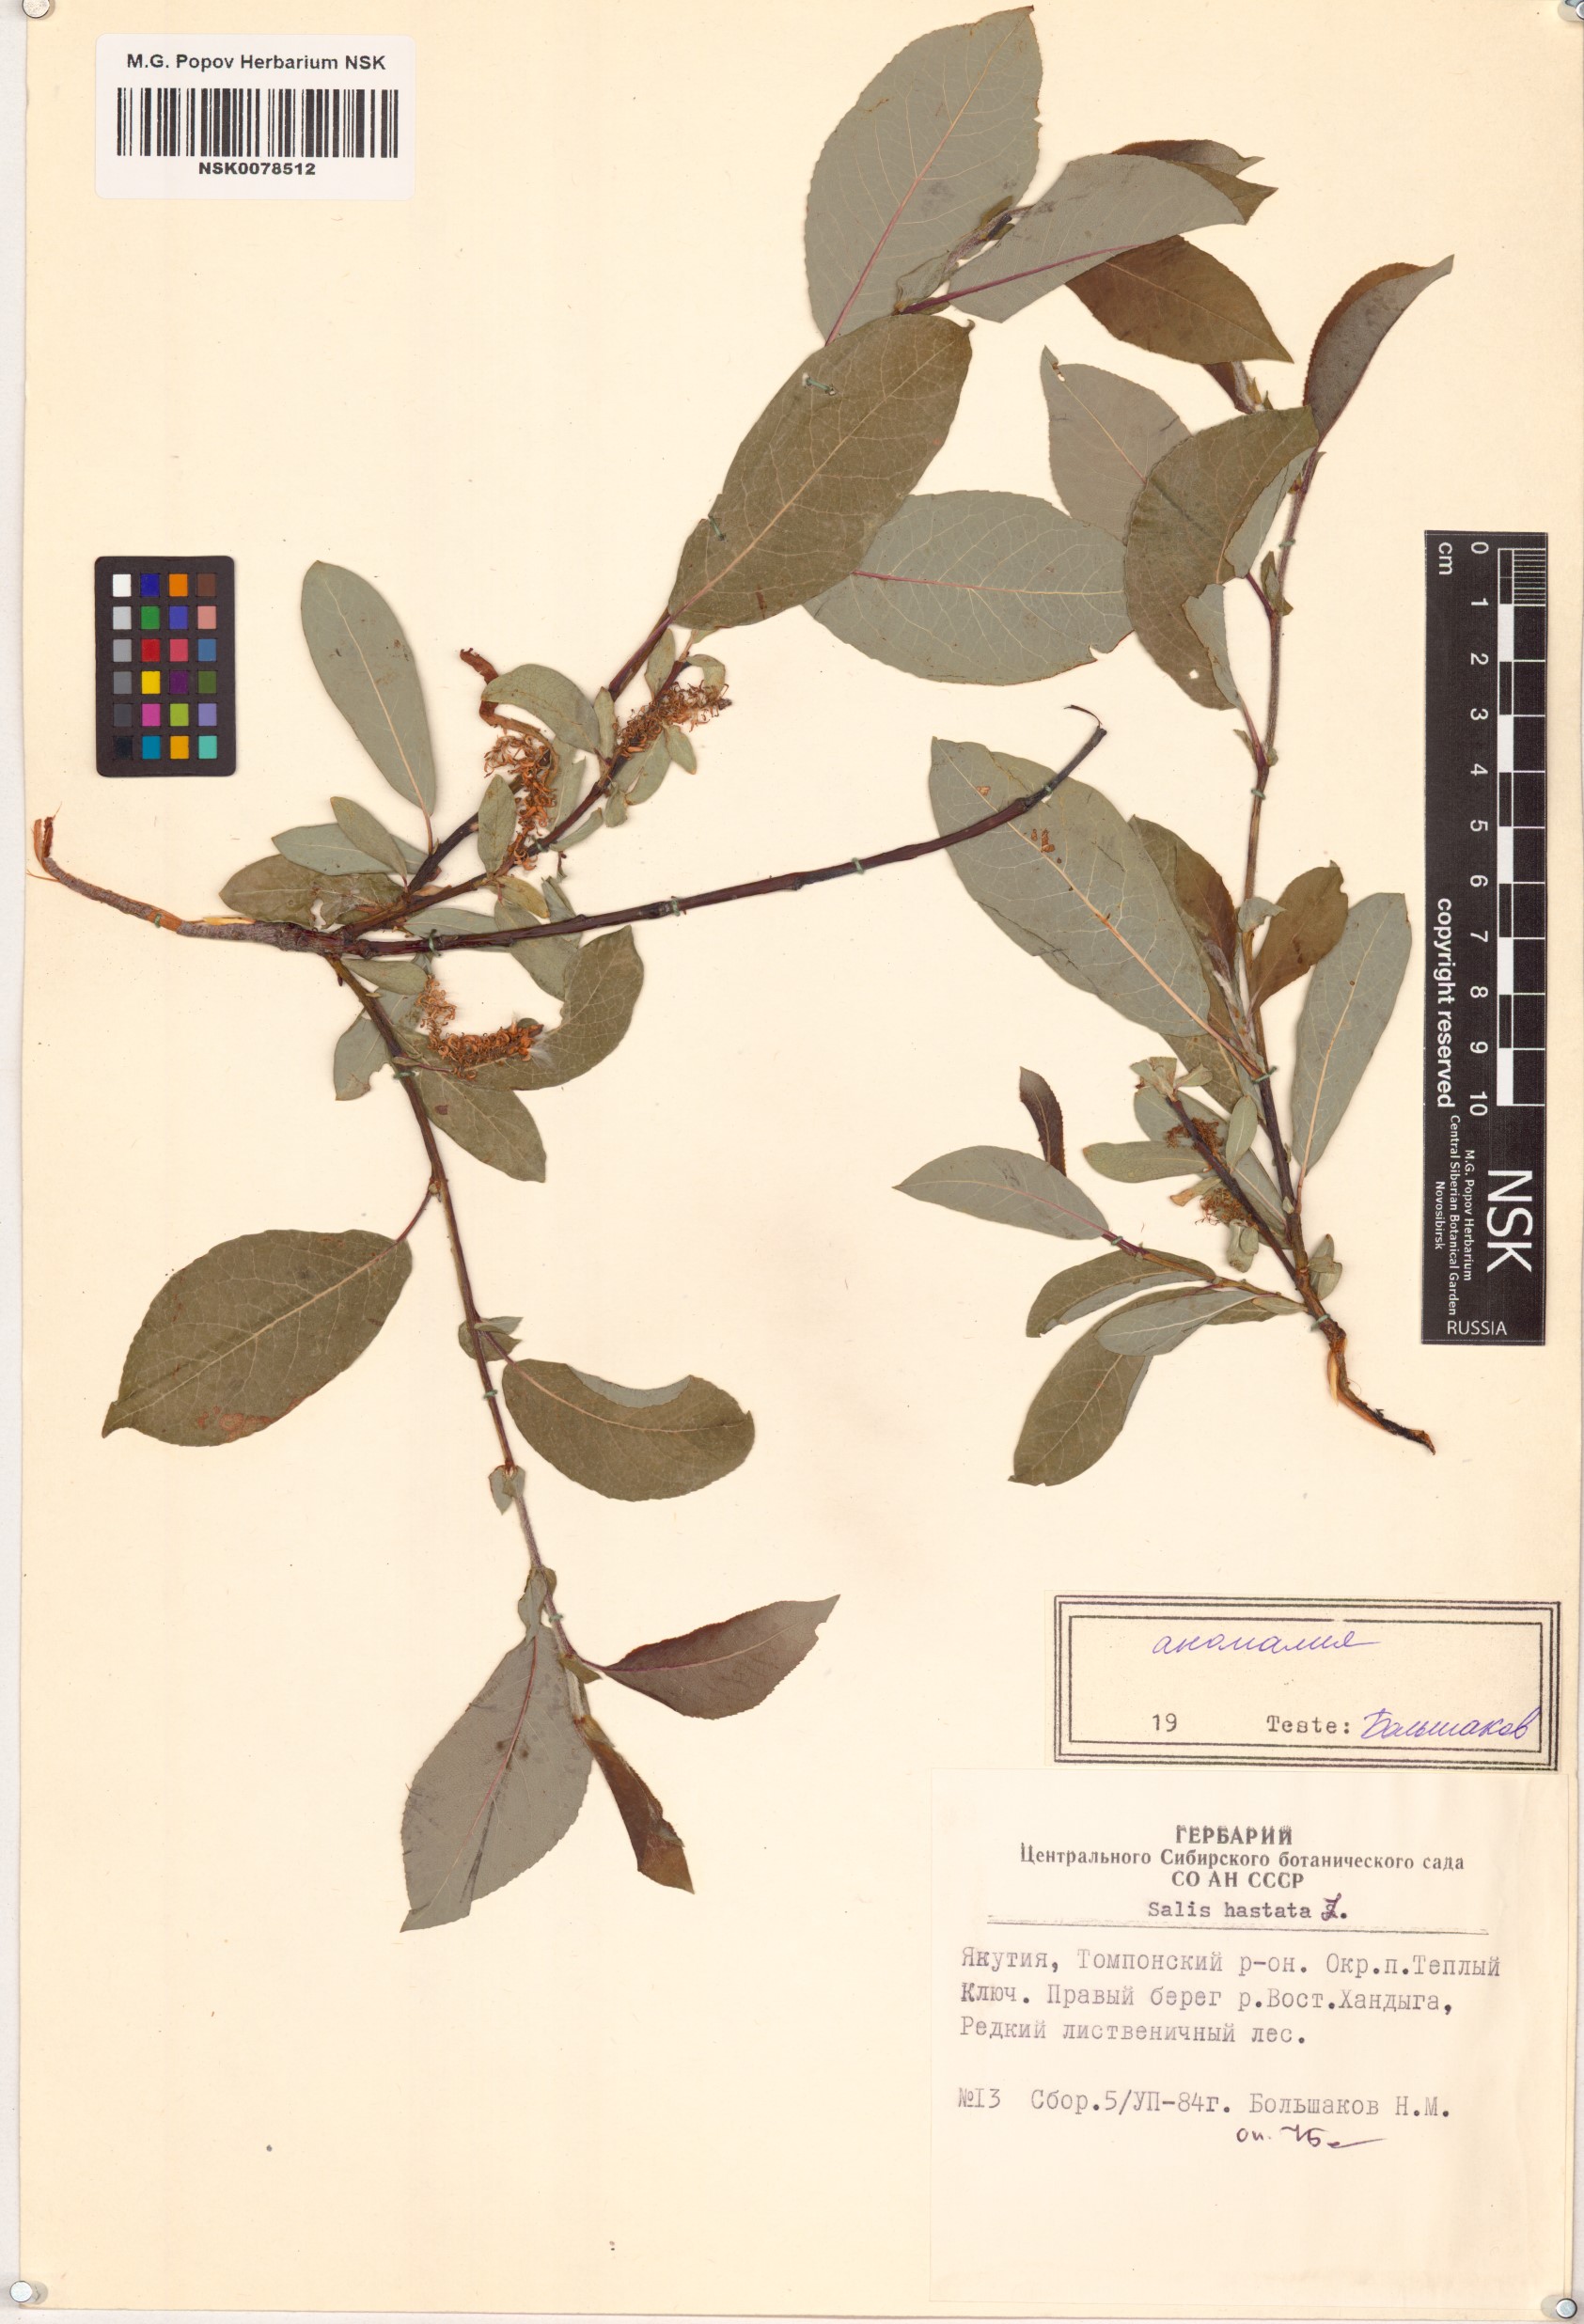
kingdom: Plantae
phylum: Tracheophyta
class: Magnoliopsida
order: Malpighiales
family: Salicaceae
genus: Salix
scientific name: Salix hastata
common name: Halberd willow
